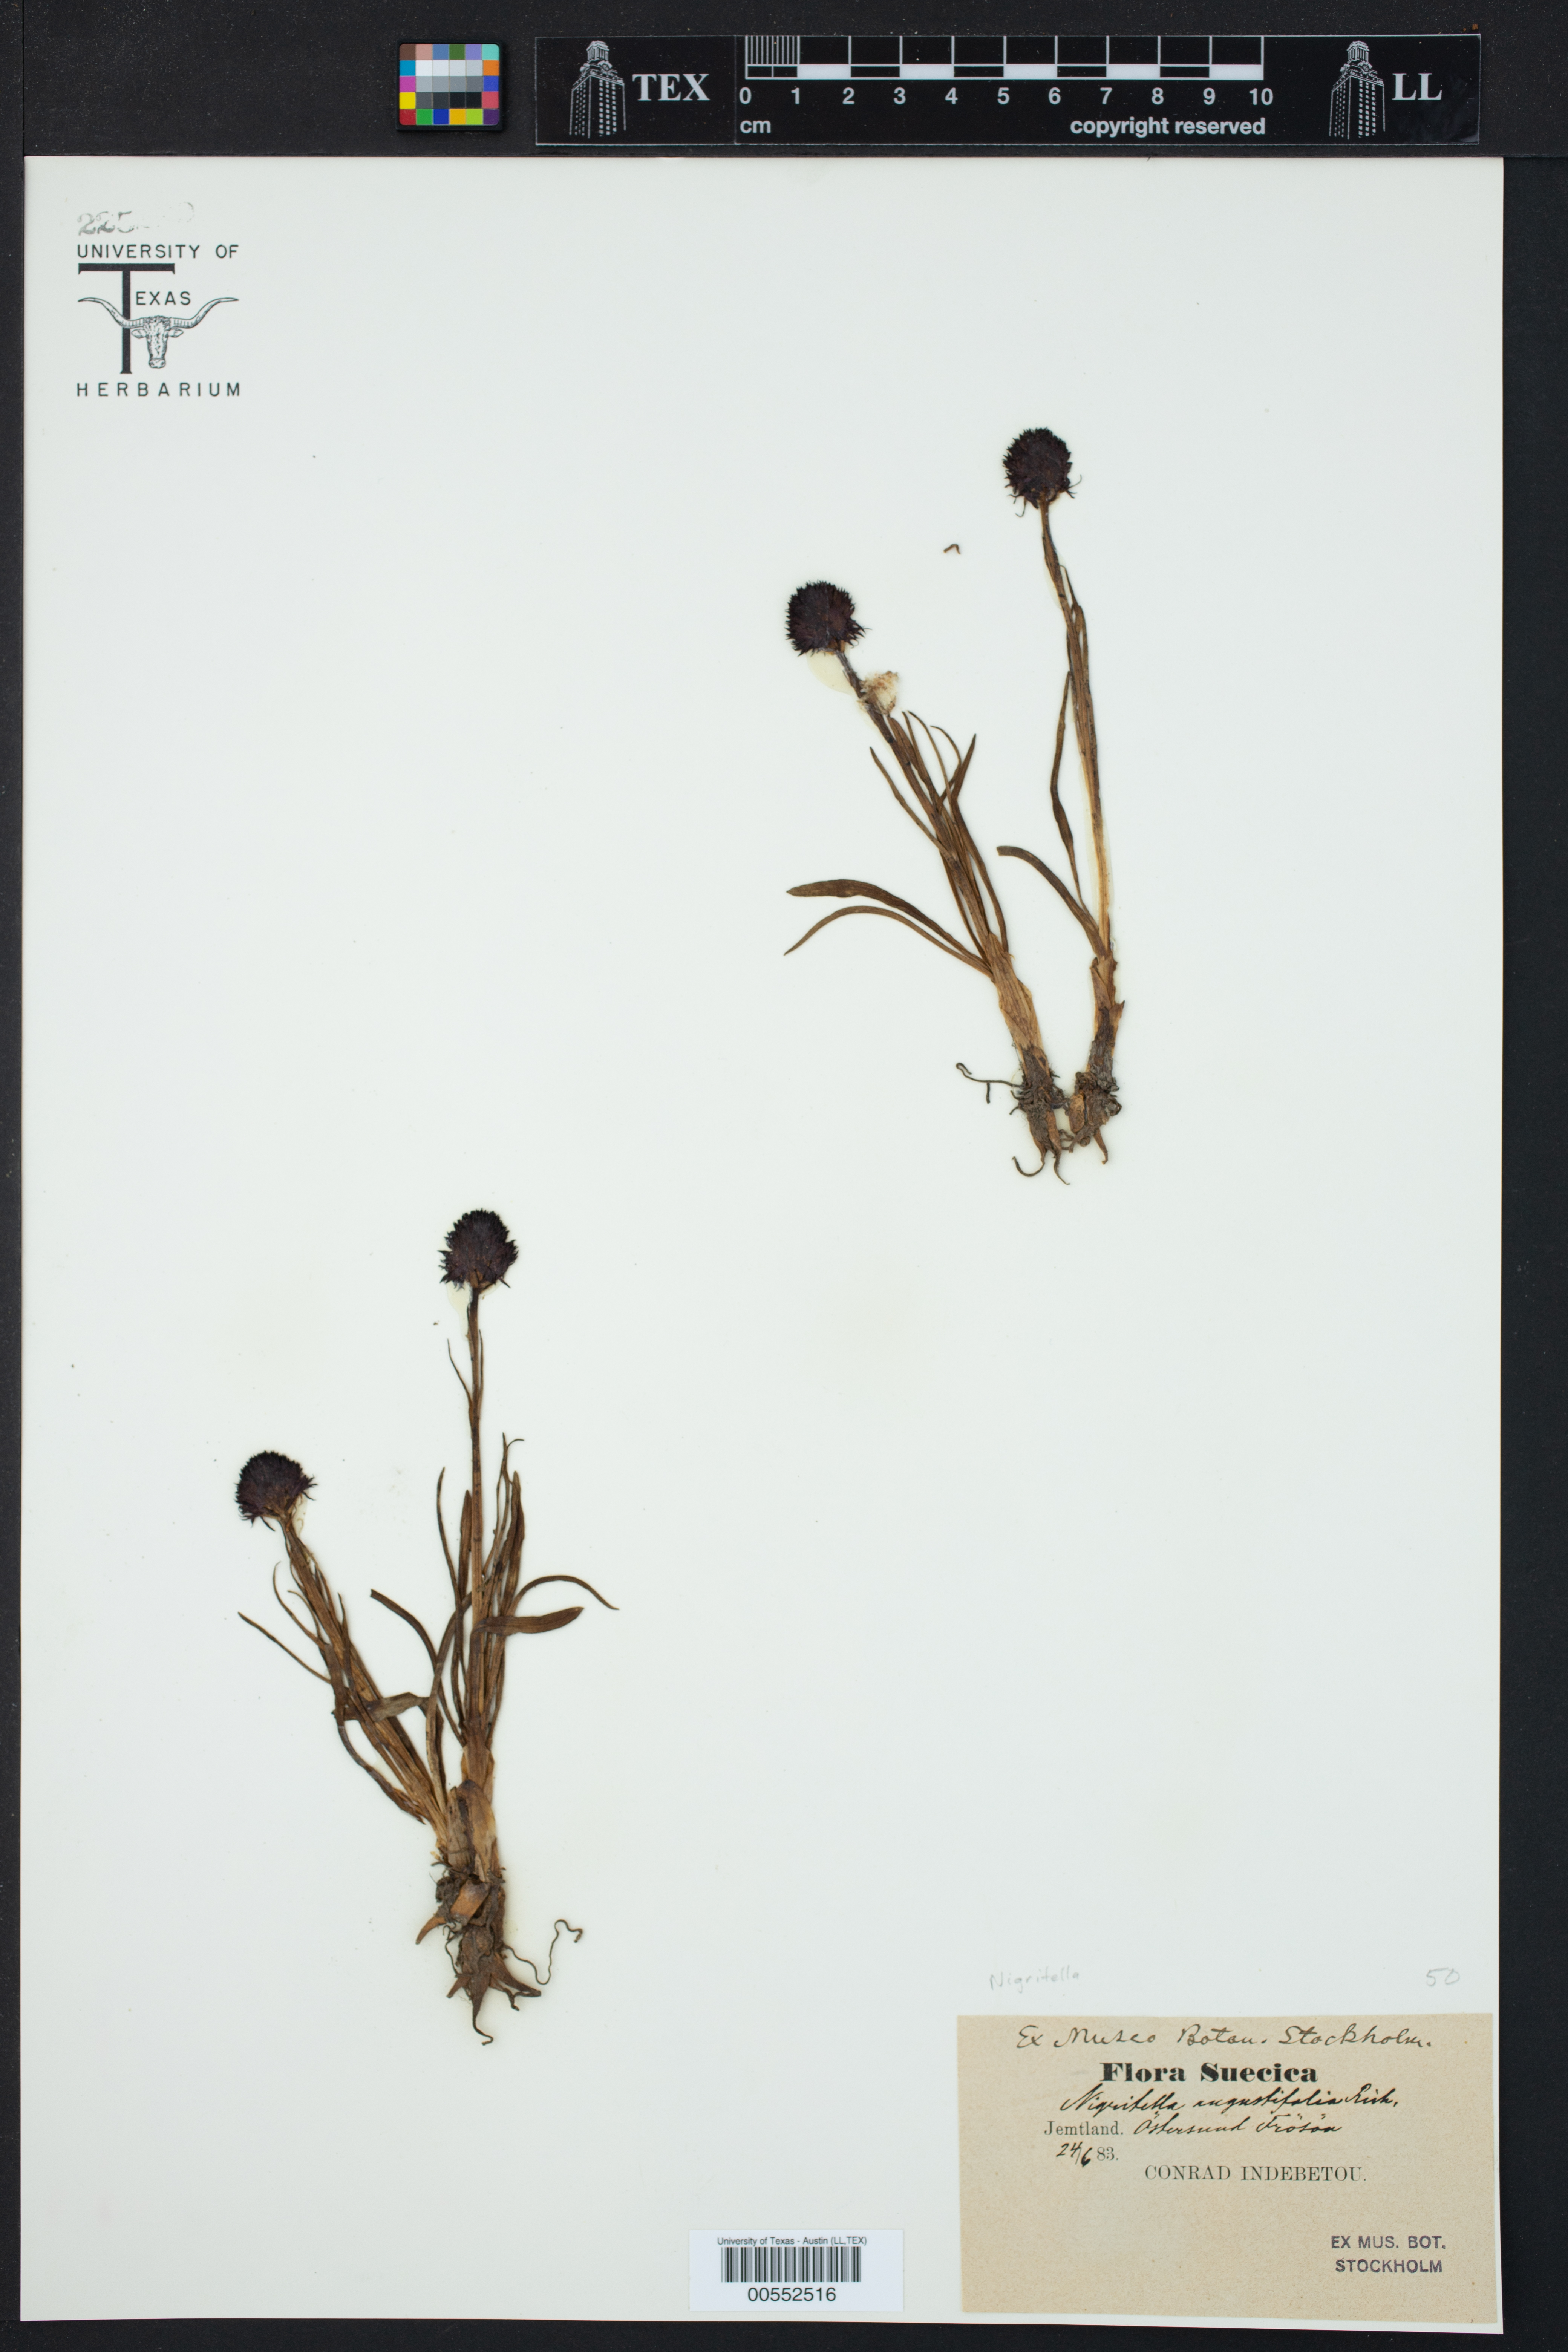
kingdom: Plantae
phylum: Tracheophyta
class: Liliopsida
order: Asparagales
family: Orchidaceae
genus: Gymnadenia
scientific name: Gymnadenia nigra
